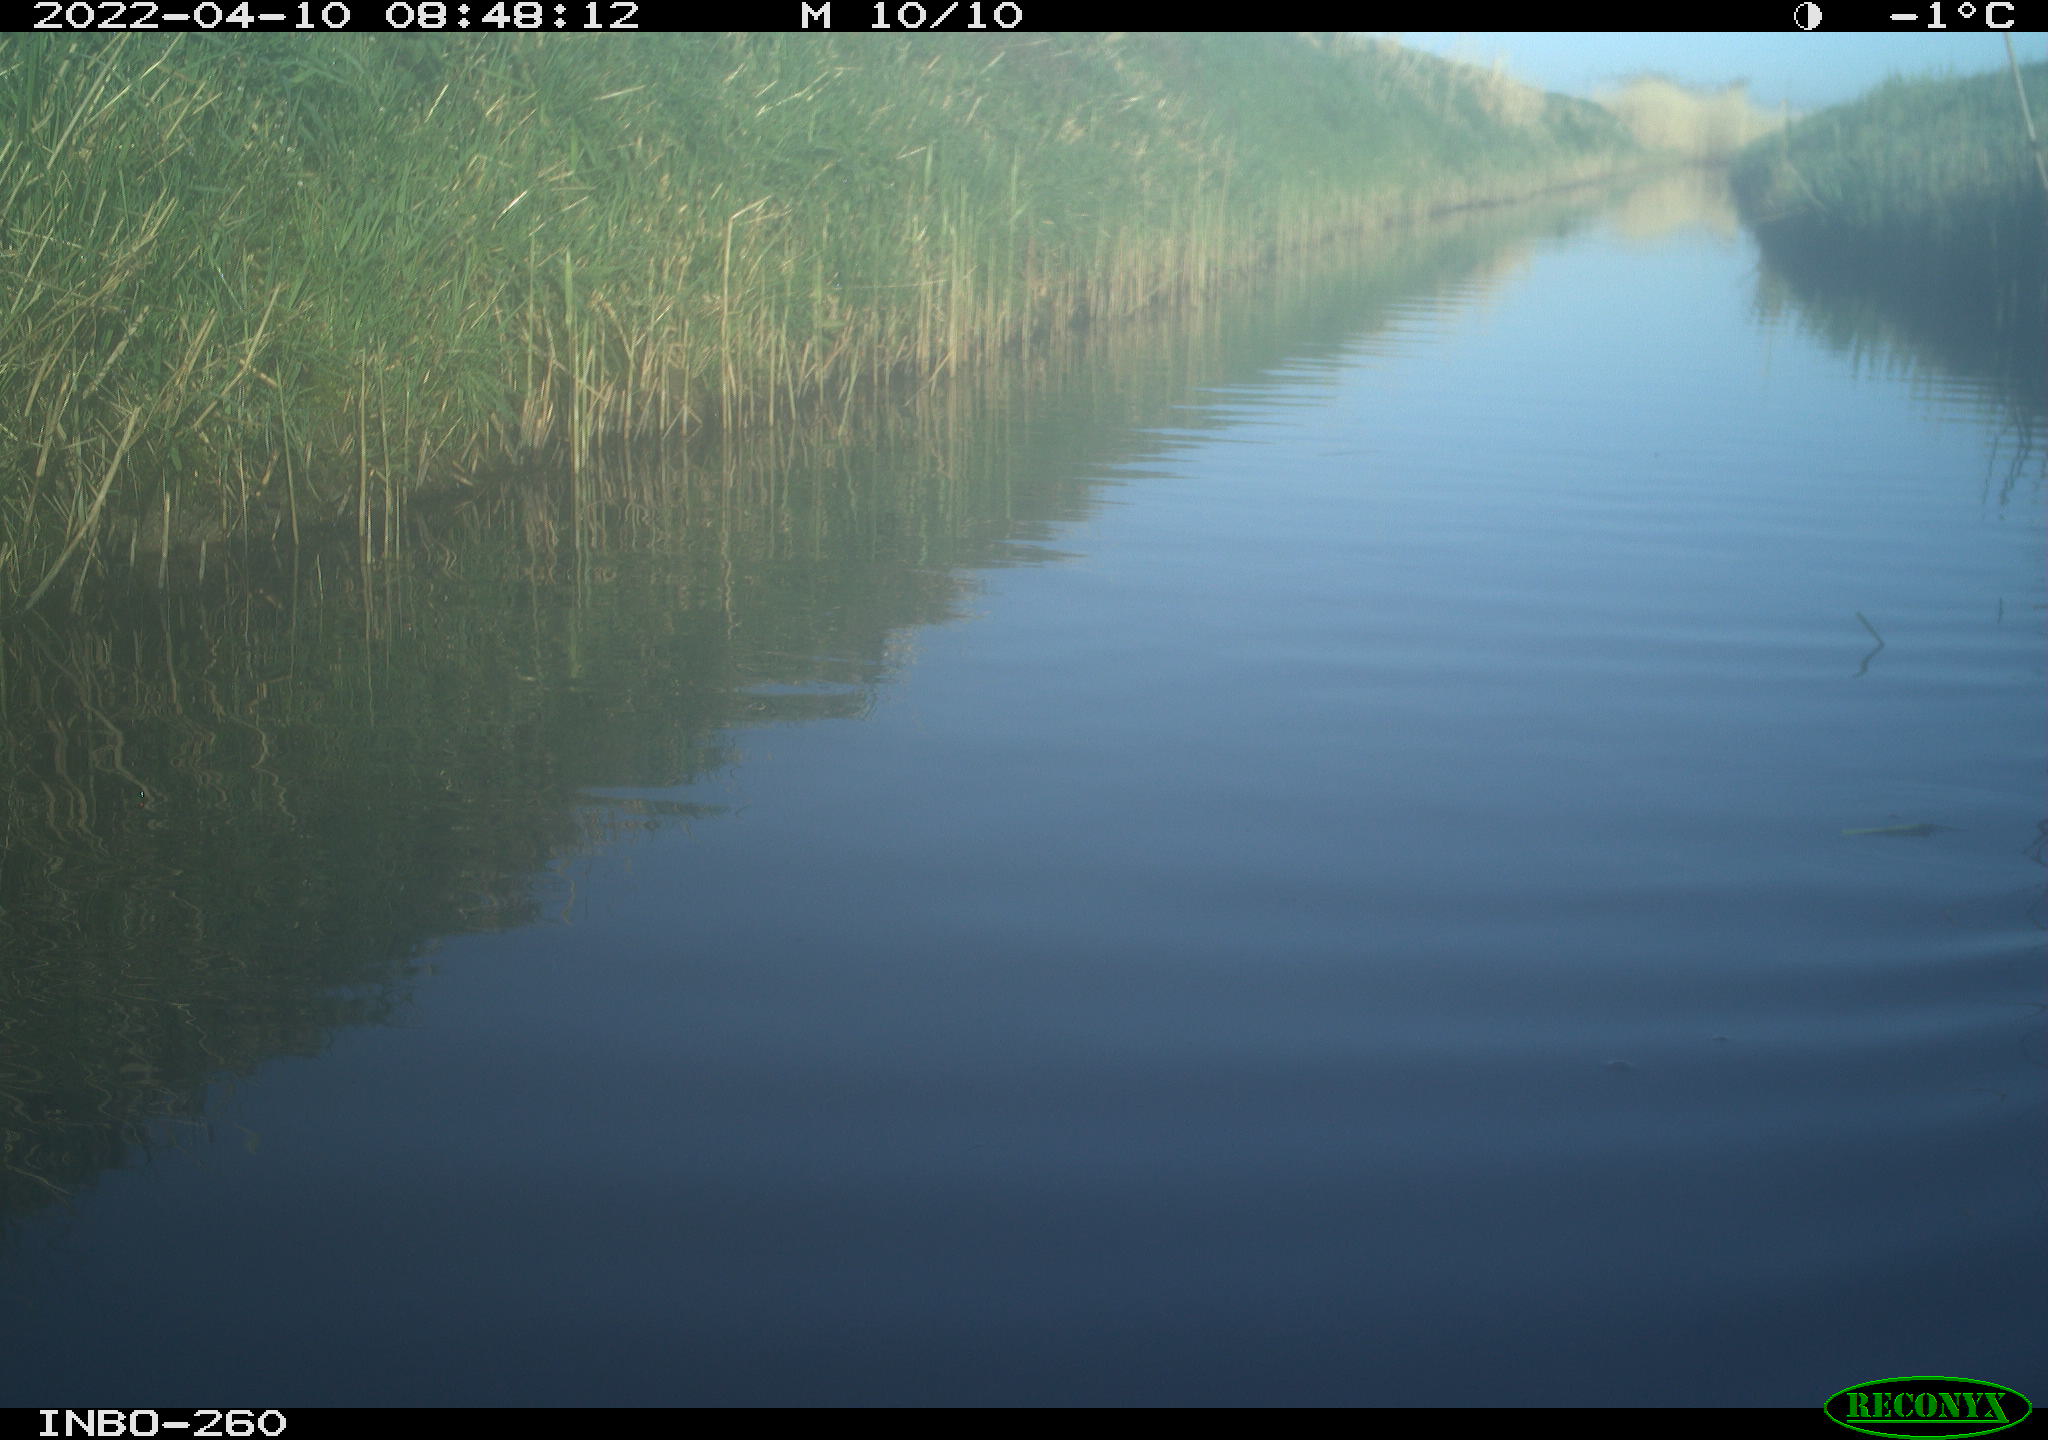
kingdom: Animalia
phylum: Chordata
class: Aves
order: Gruiformes
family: Rallidae
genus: Fulica
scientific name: Fulica atra
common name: Eurasian coot
